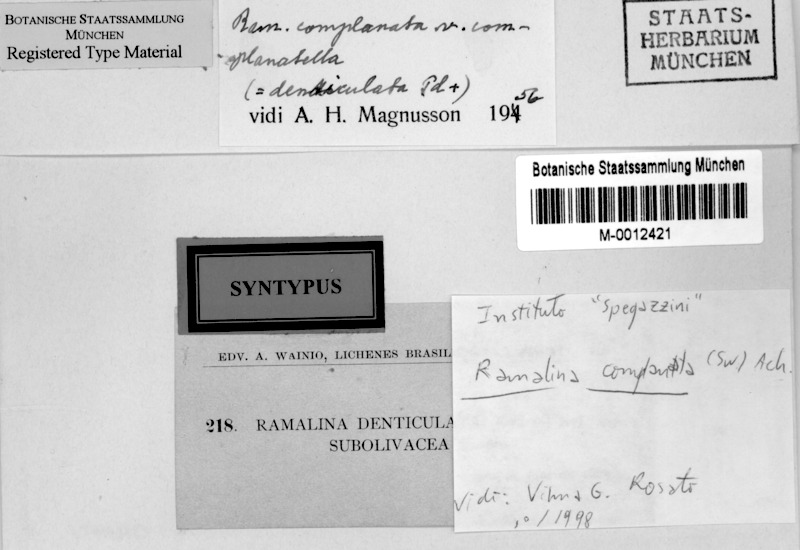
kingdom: Fungi
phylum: Ascomycota
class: Lecanoromycetes
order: Lecanorales
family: Ramalinaceae
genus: Ramalina
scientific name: Ramalina complanata
